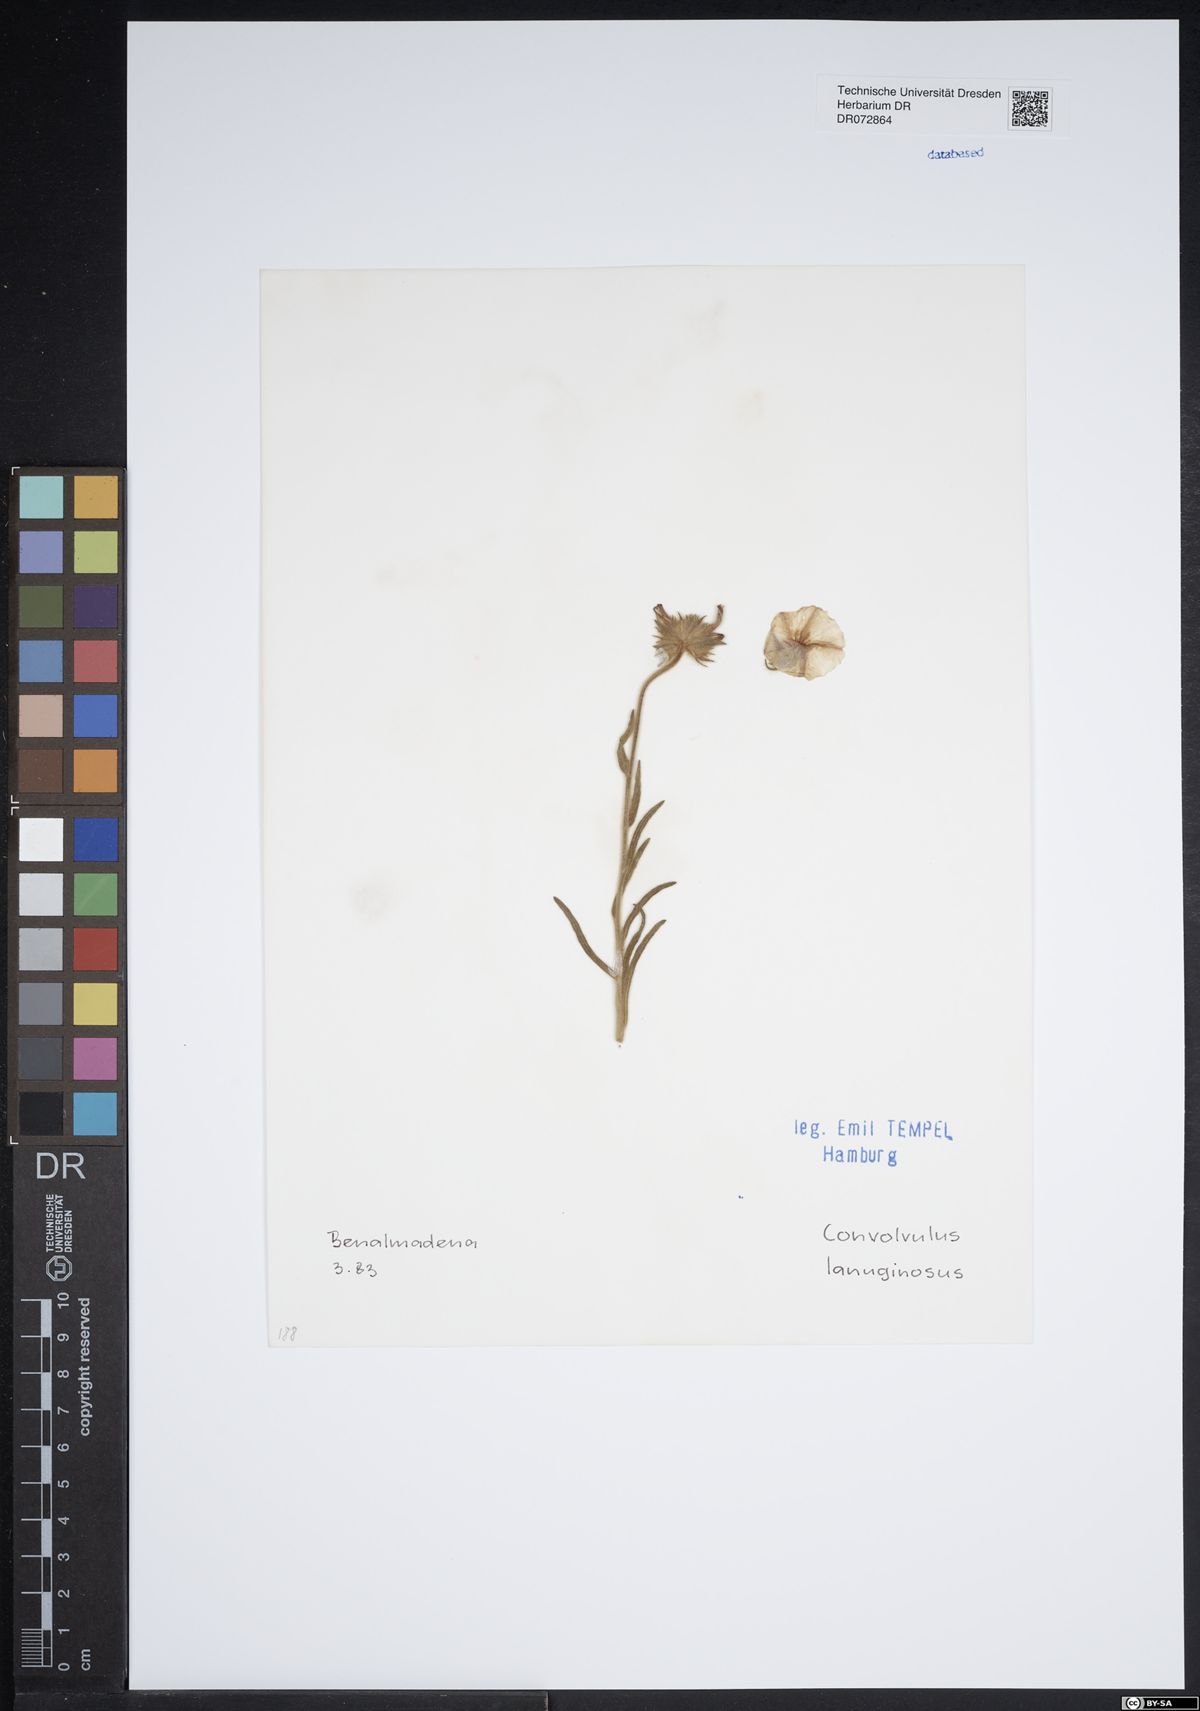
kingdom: Plantae
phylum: Tracheophyta
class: Magnoliopsida
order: Solanales
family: Convolvulaceae
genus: Convolvulus
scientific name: Convolvulus lanuginosus
